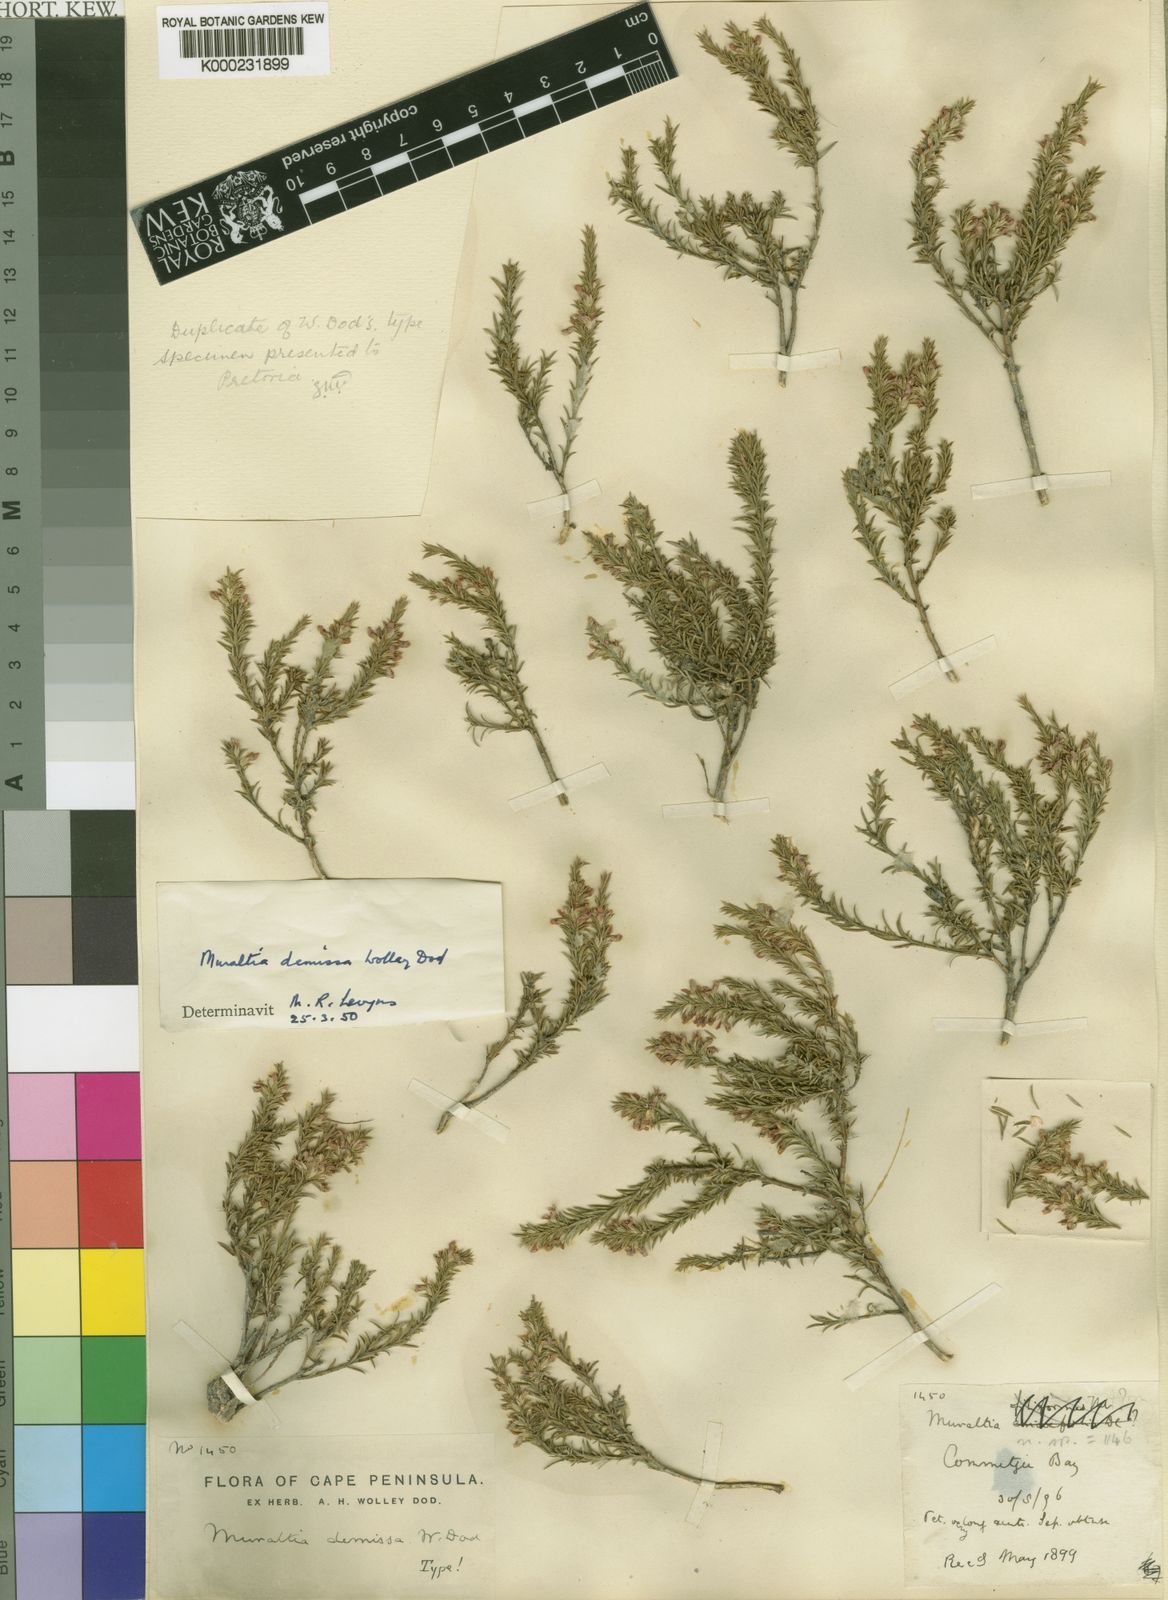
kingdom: Plantae
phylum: Tracheophyta
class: Magnoliopsida
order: Fabales
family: Polygalaceae
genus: Muraltia
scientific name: Muraltia demissa
